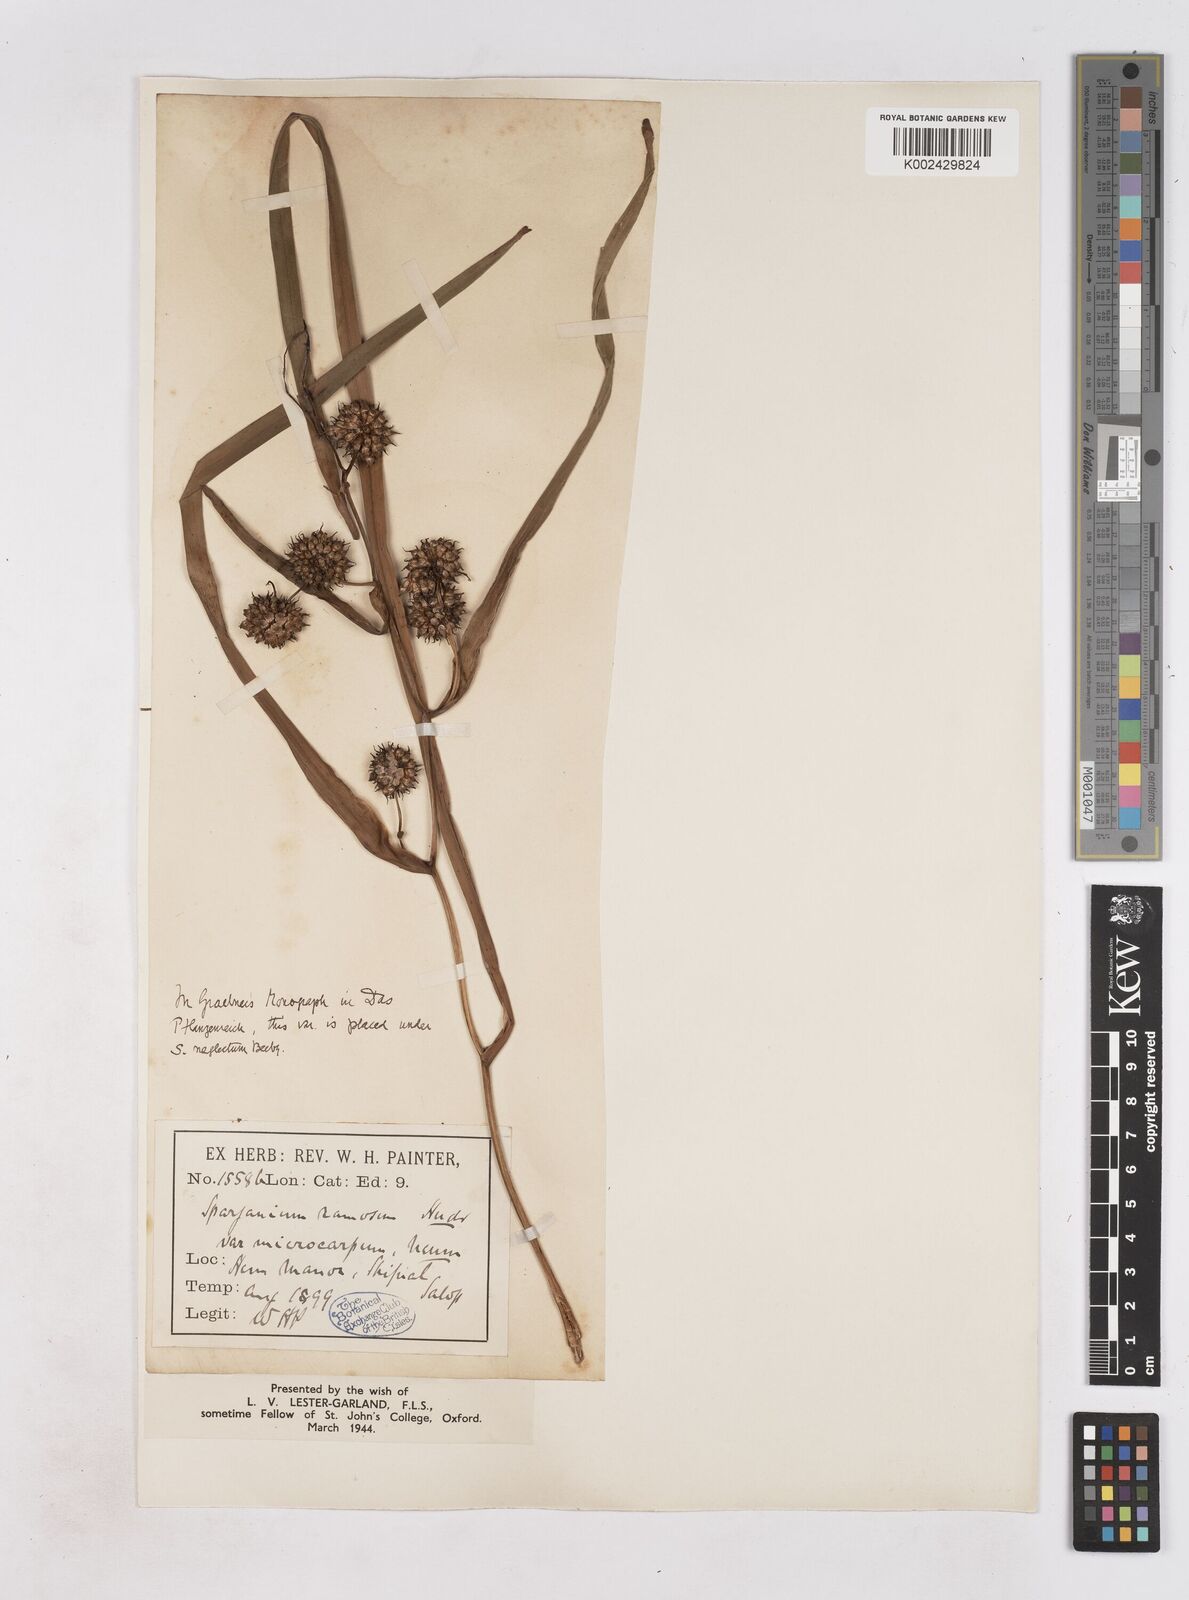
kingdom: Plantae
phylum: Tracheophyta
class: Liliopsida
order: Poales
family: Typhaceae
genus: Sparganium
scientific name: Sparganium erectum
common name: Branched bur-reed
